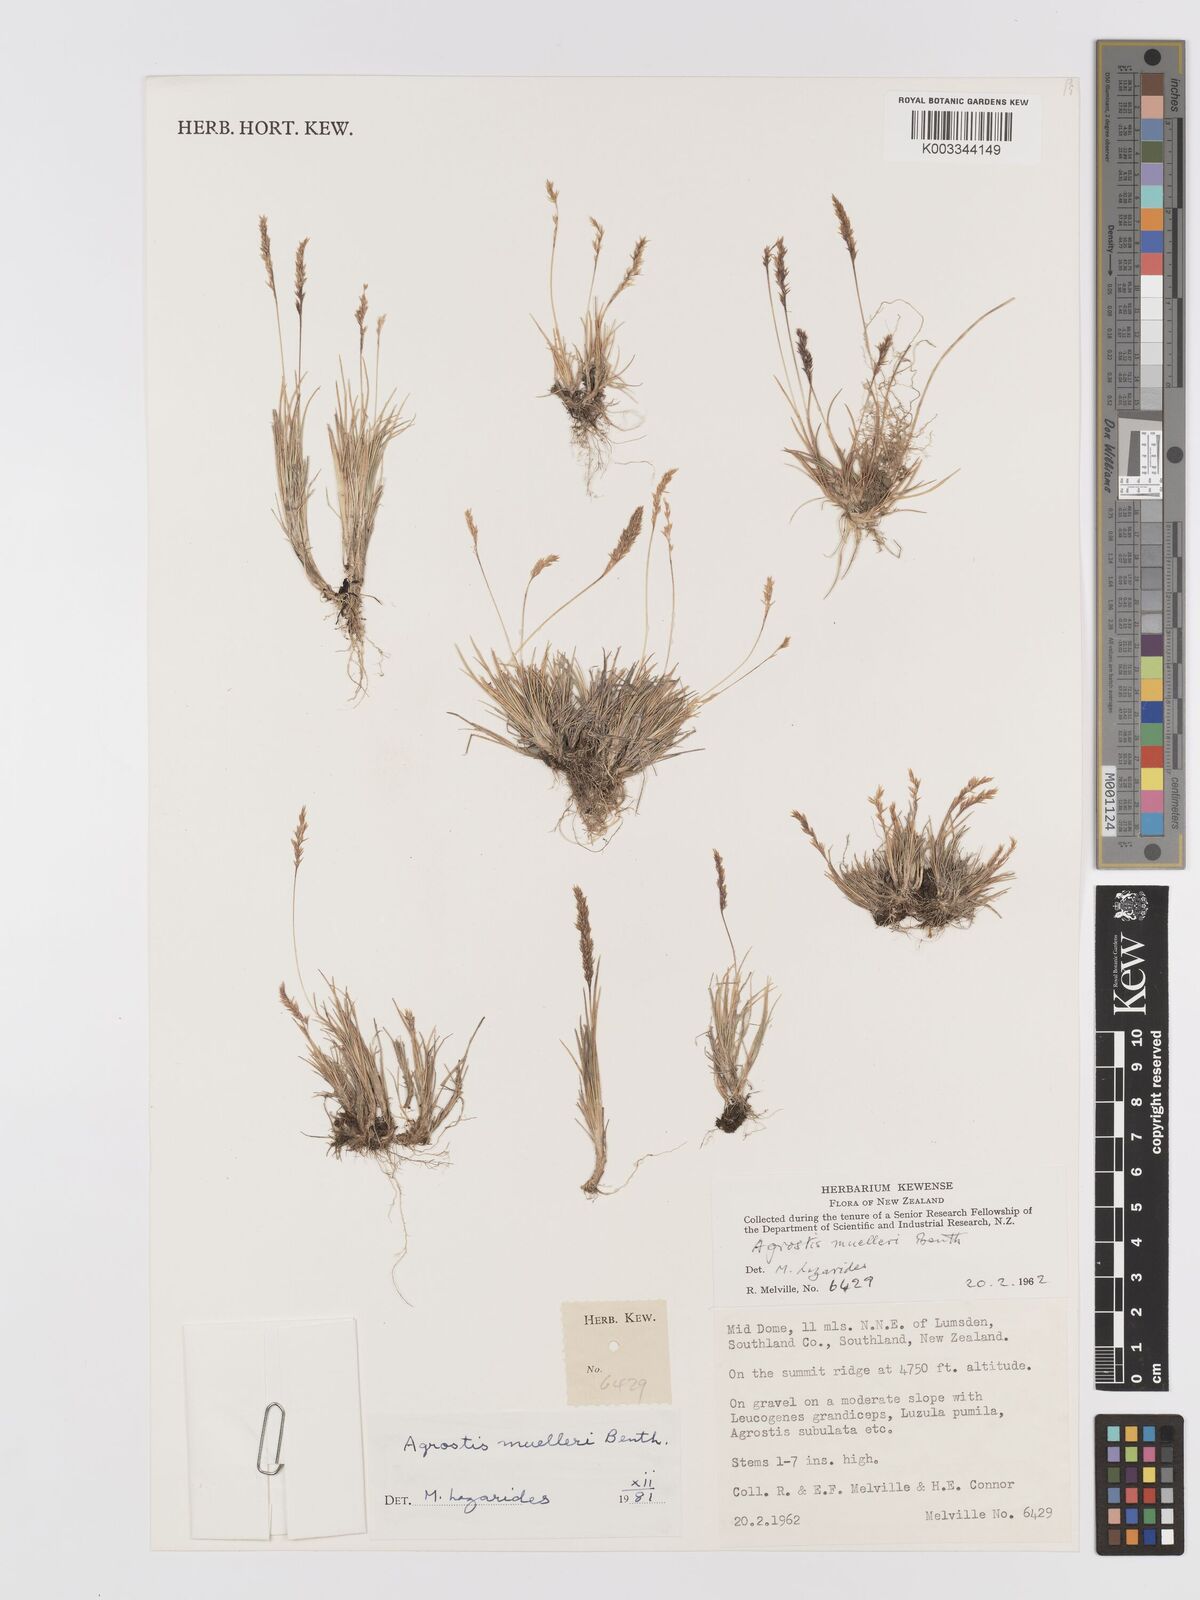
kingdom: Plantae
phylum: Tracheophyta
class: Liliopsida
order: Poales
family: Poaceae
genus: Agrostis
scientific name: Agrostis muelleriana
